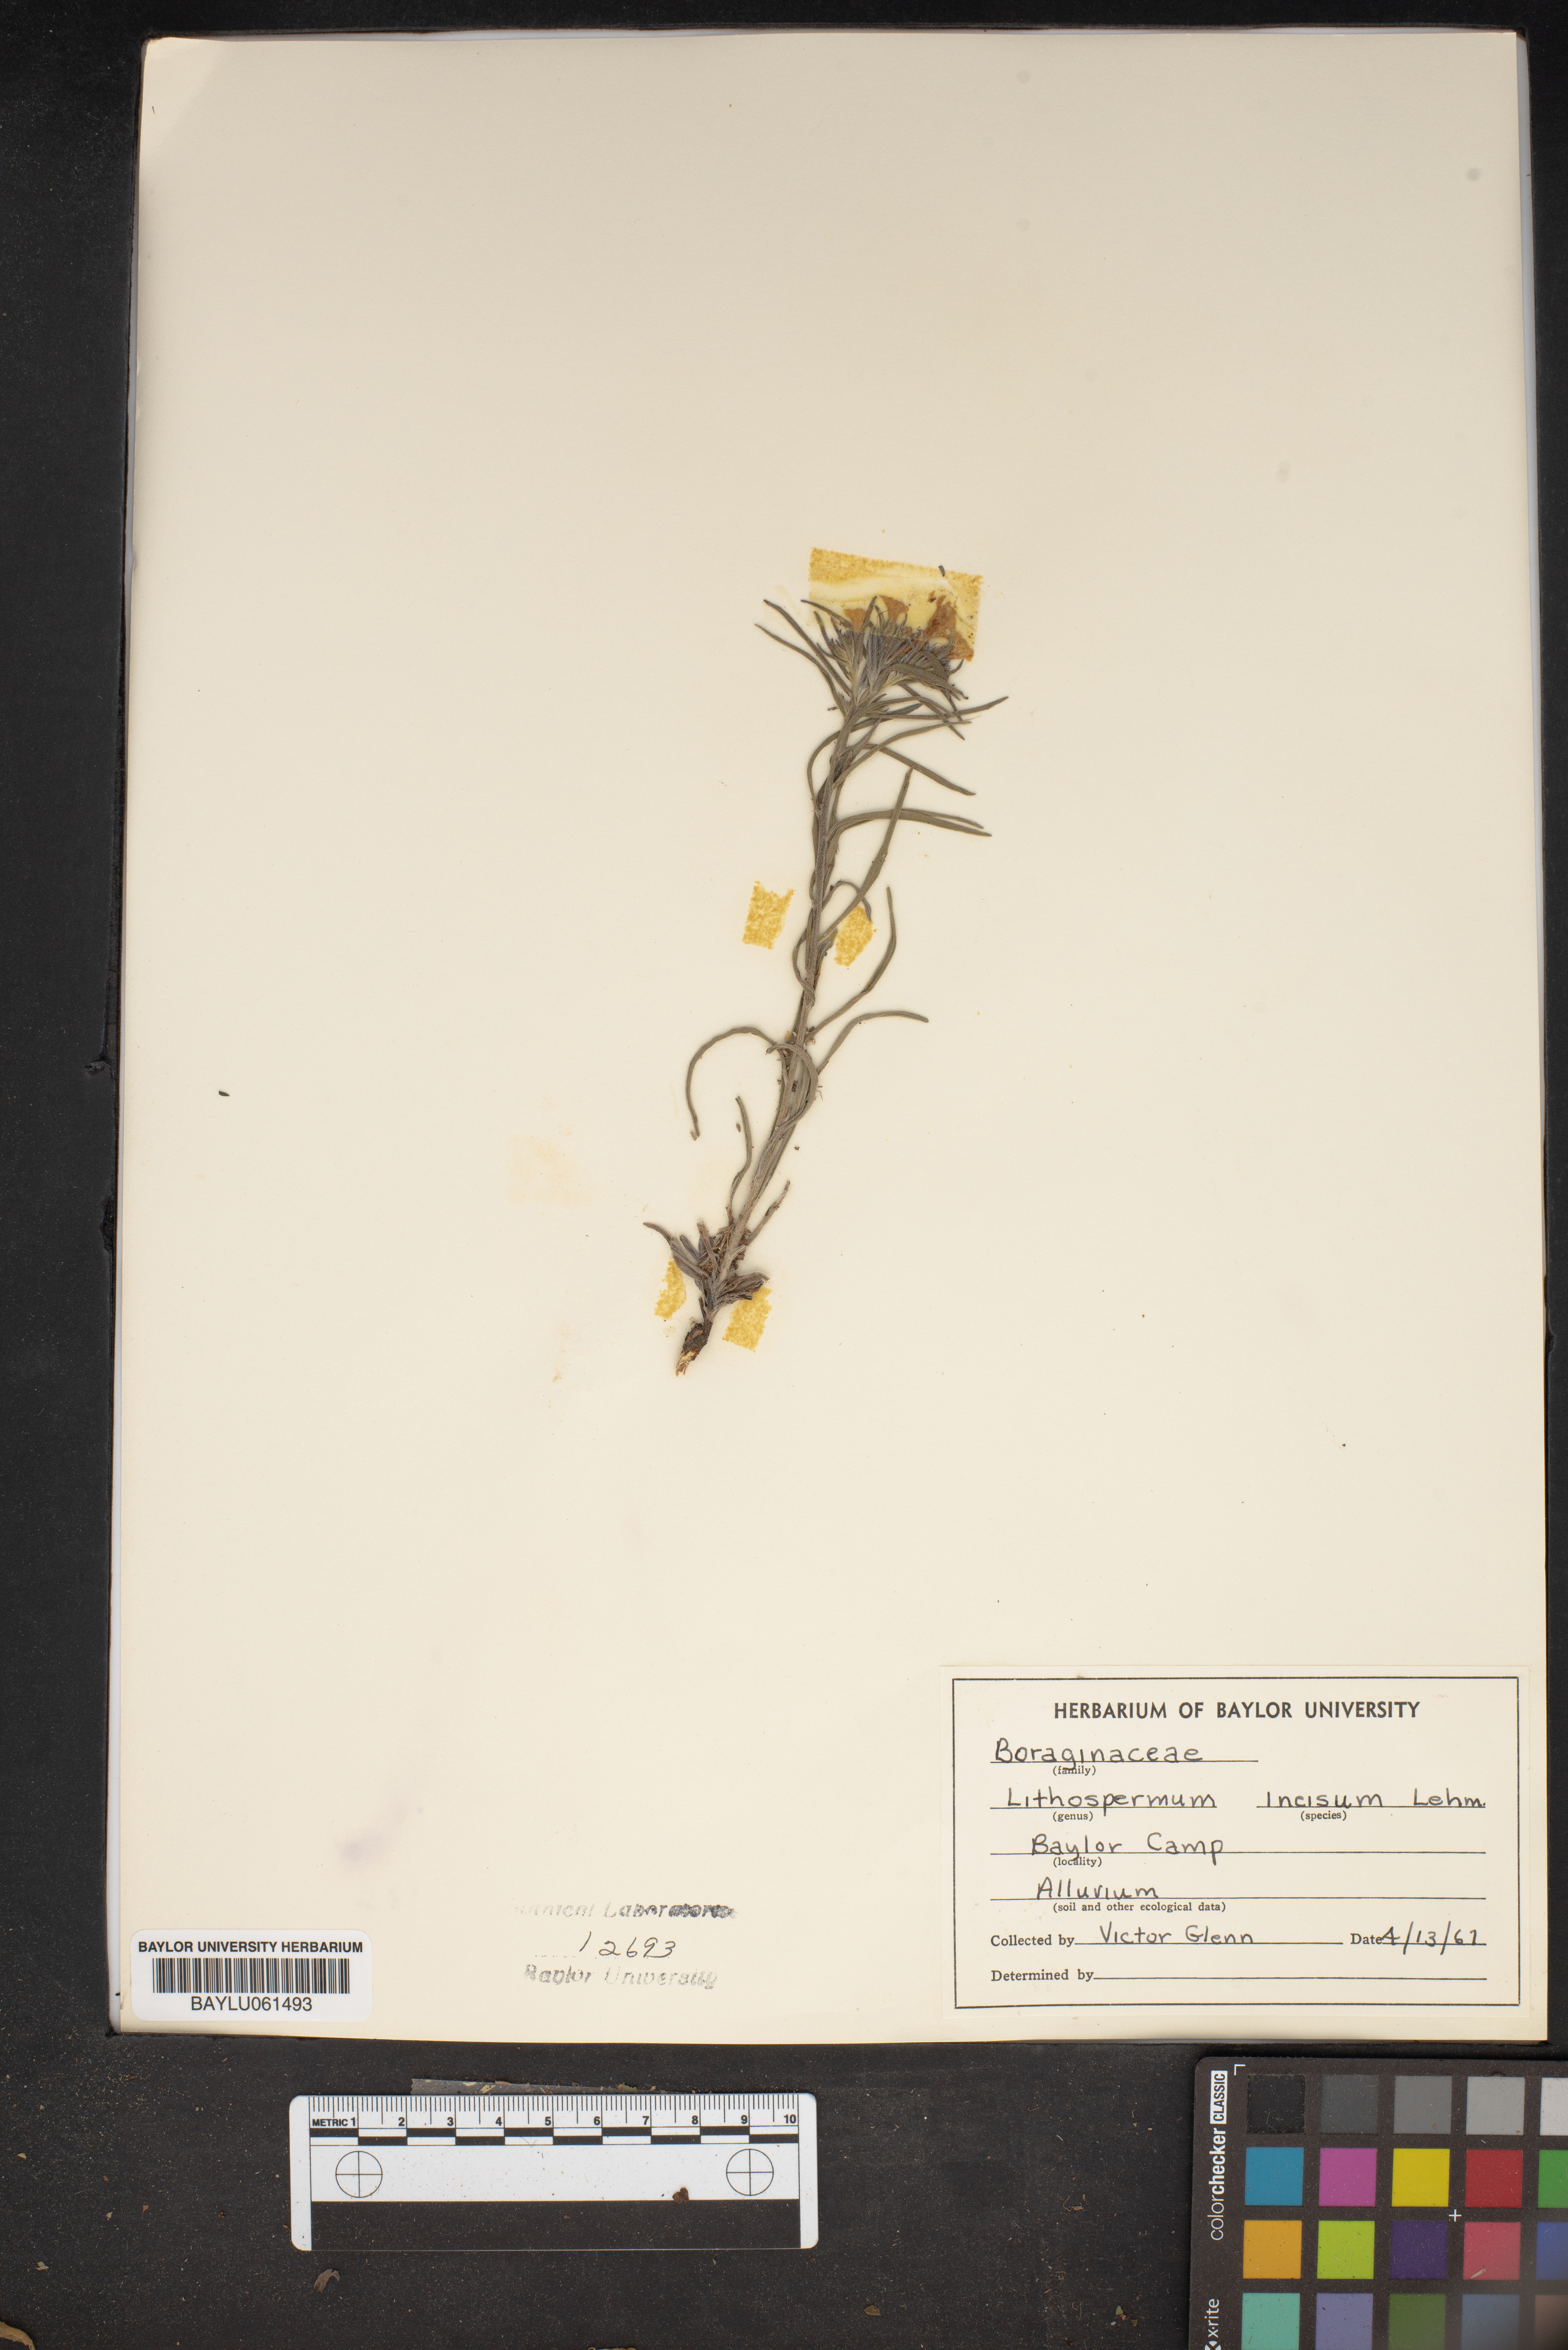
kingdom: Plantae
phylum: Tracheophyta
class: Magnoliopsida
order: Boraginales
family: Boraginaceae
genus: Lithospermum
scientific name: Lithospermum incisum
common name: Fringed gromwell
